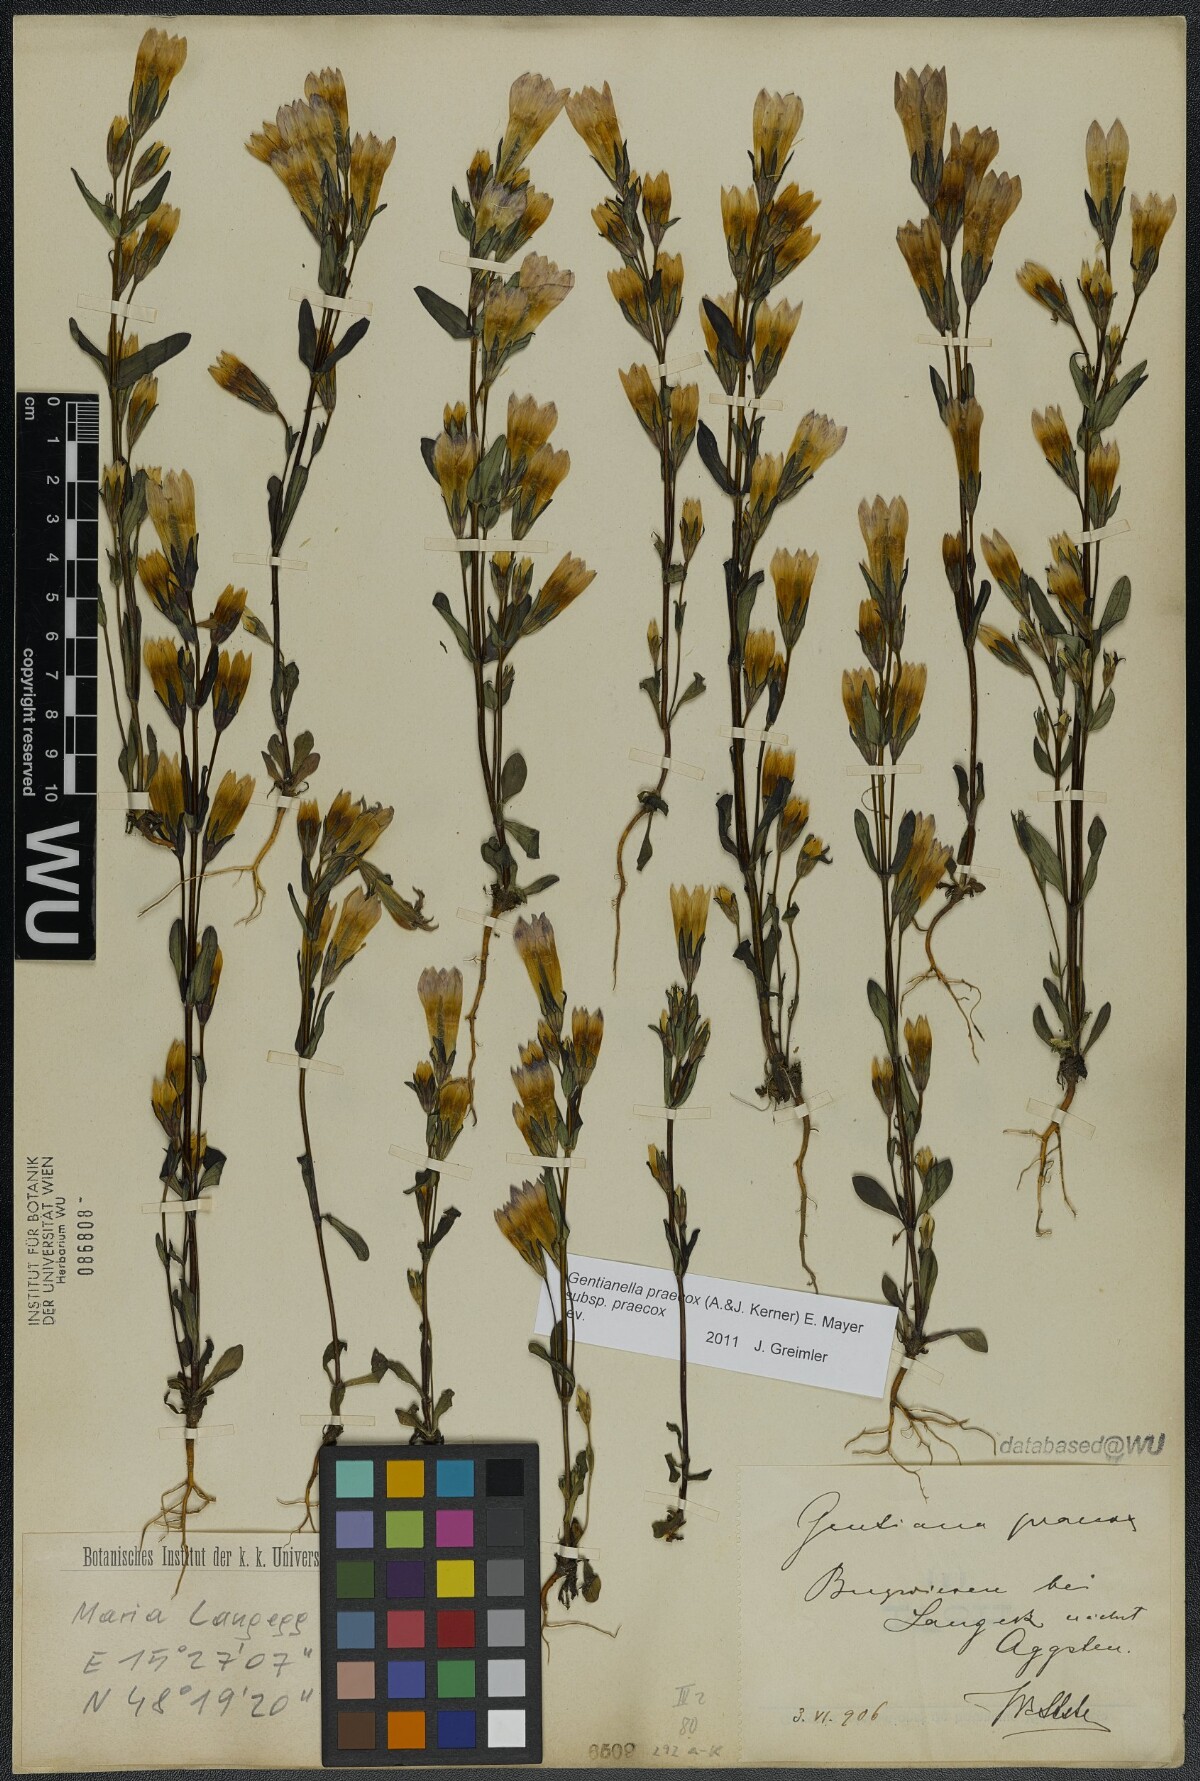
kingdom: Plantae
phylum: Tracheophyta
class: Magnoliopsida
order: Gentianales
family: Gentianaceae
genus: Gentianella
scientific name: Gentianella praecox
